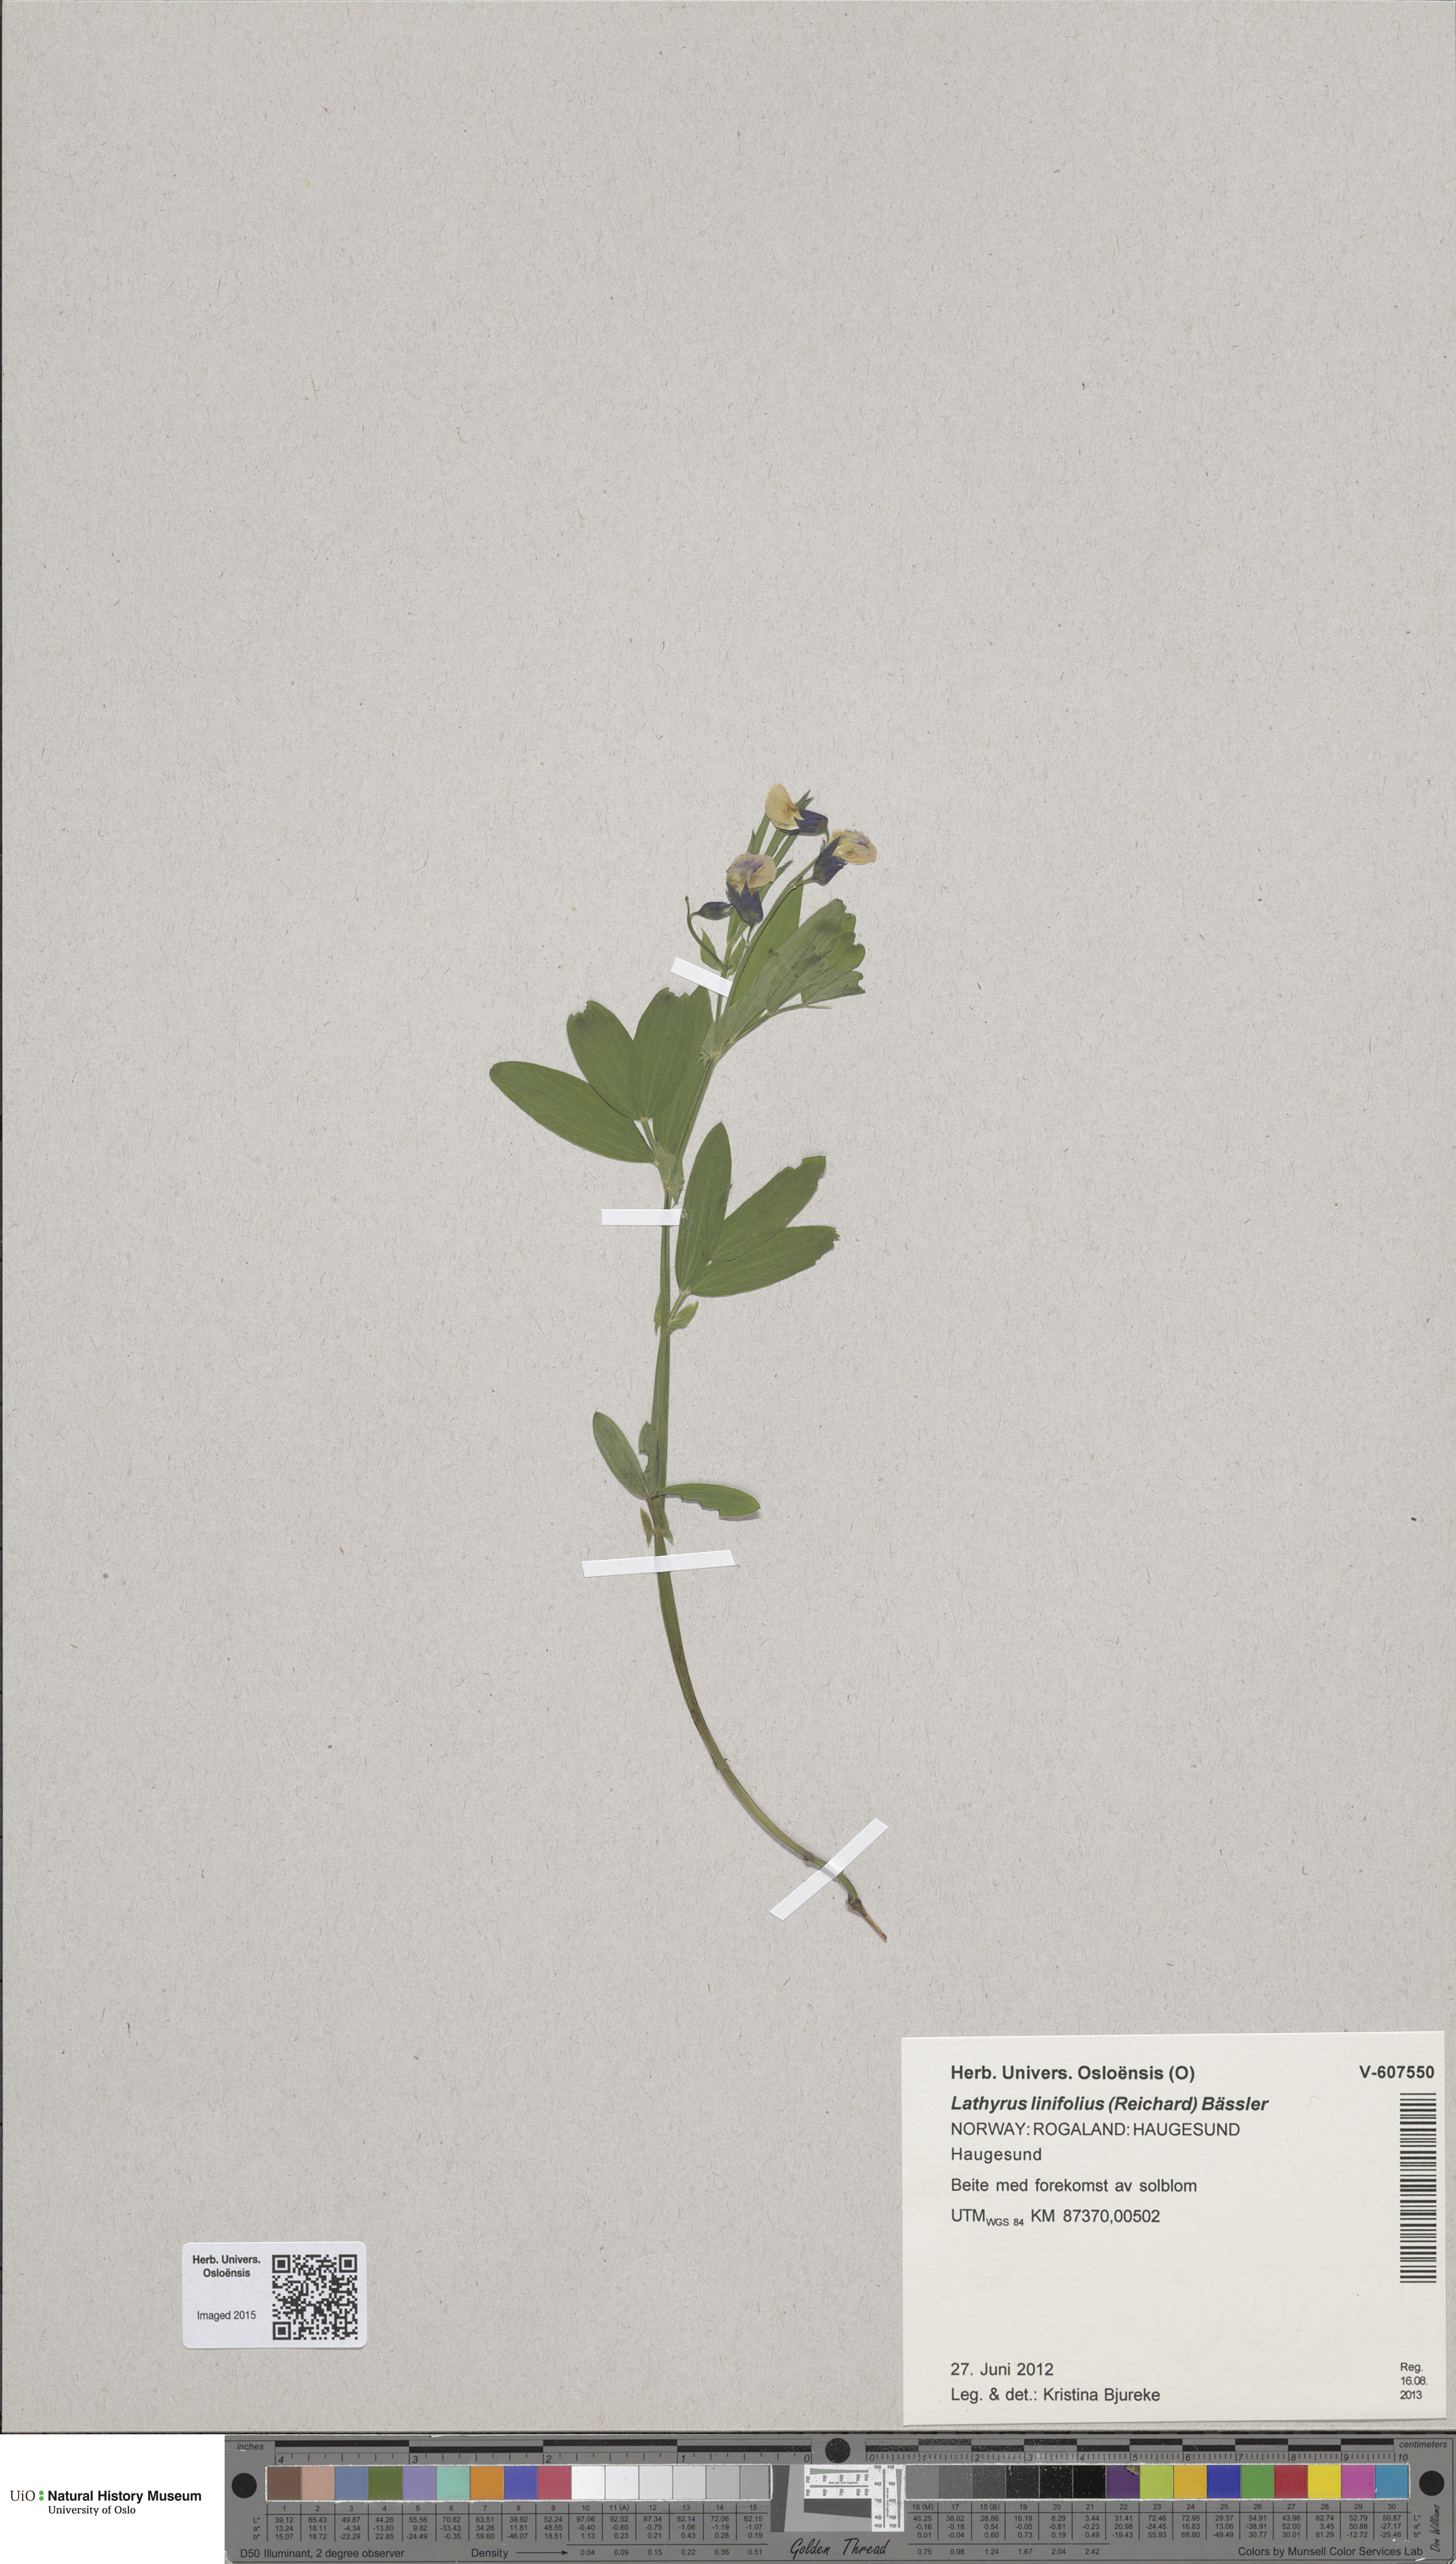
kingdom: Plantae
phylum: Tracheophyta
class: Magnoliopsida
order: Fabales
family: Fabaceae
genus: Lathyrus
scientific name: Lathyrus linifolius
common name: Bitter-vetch
